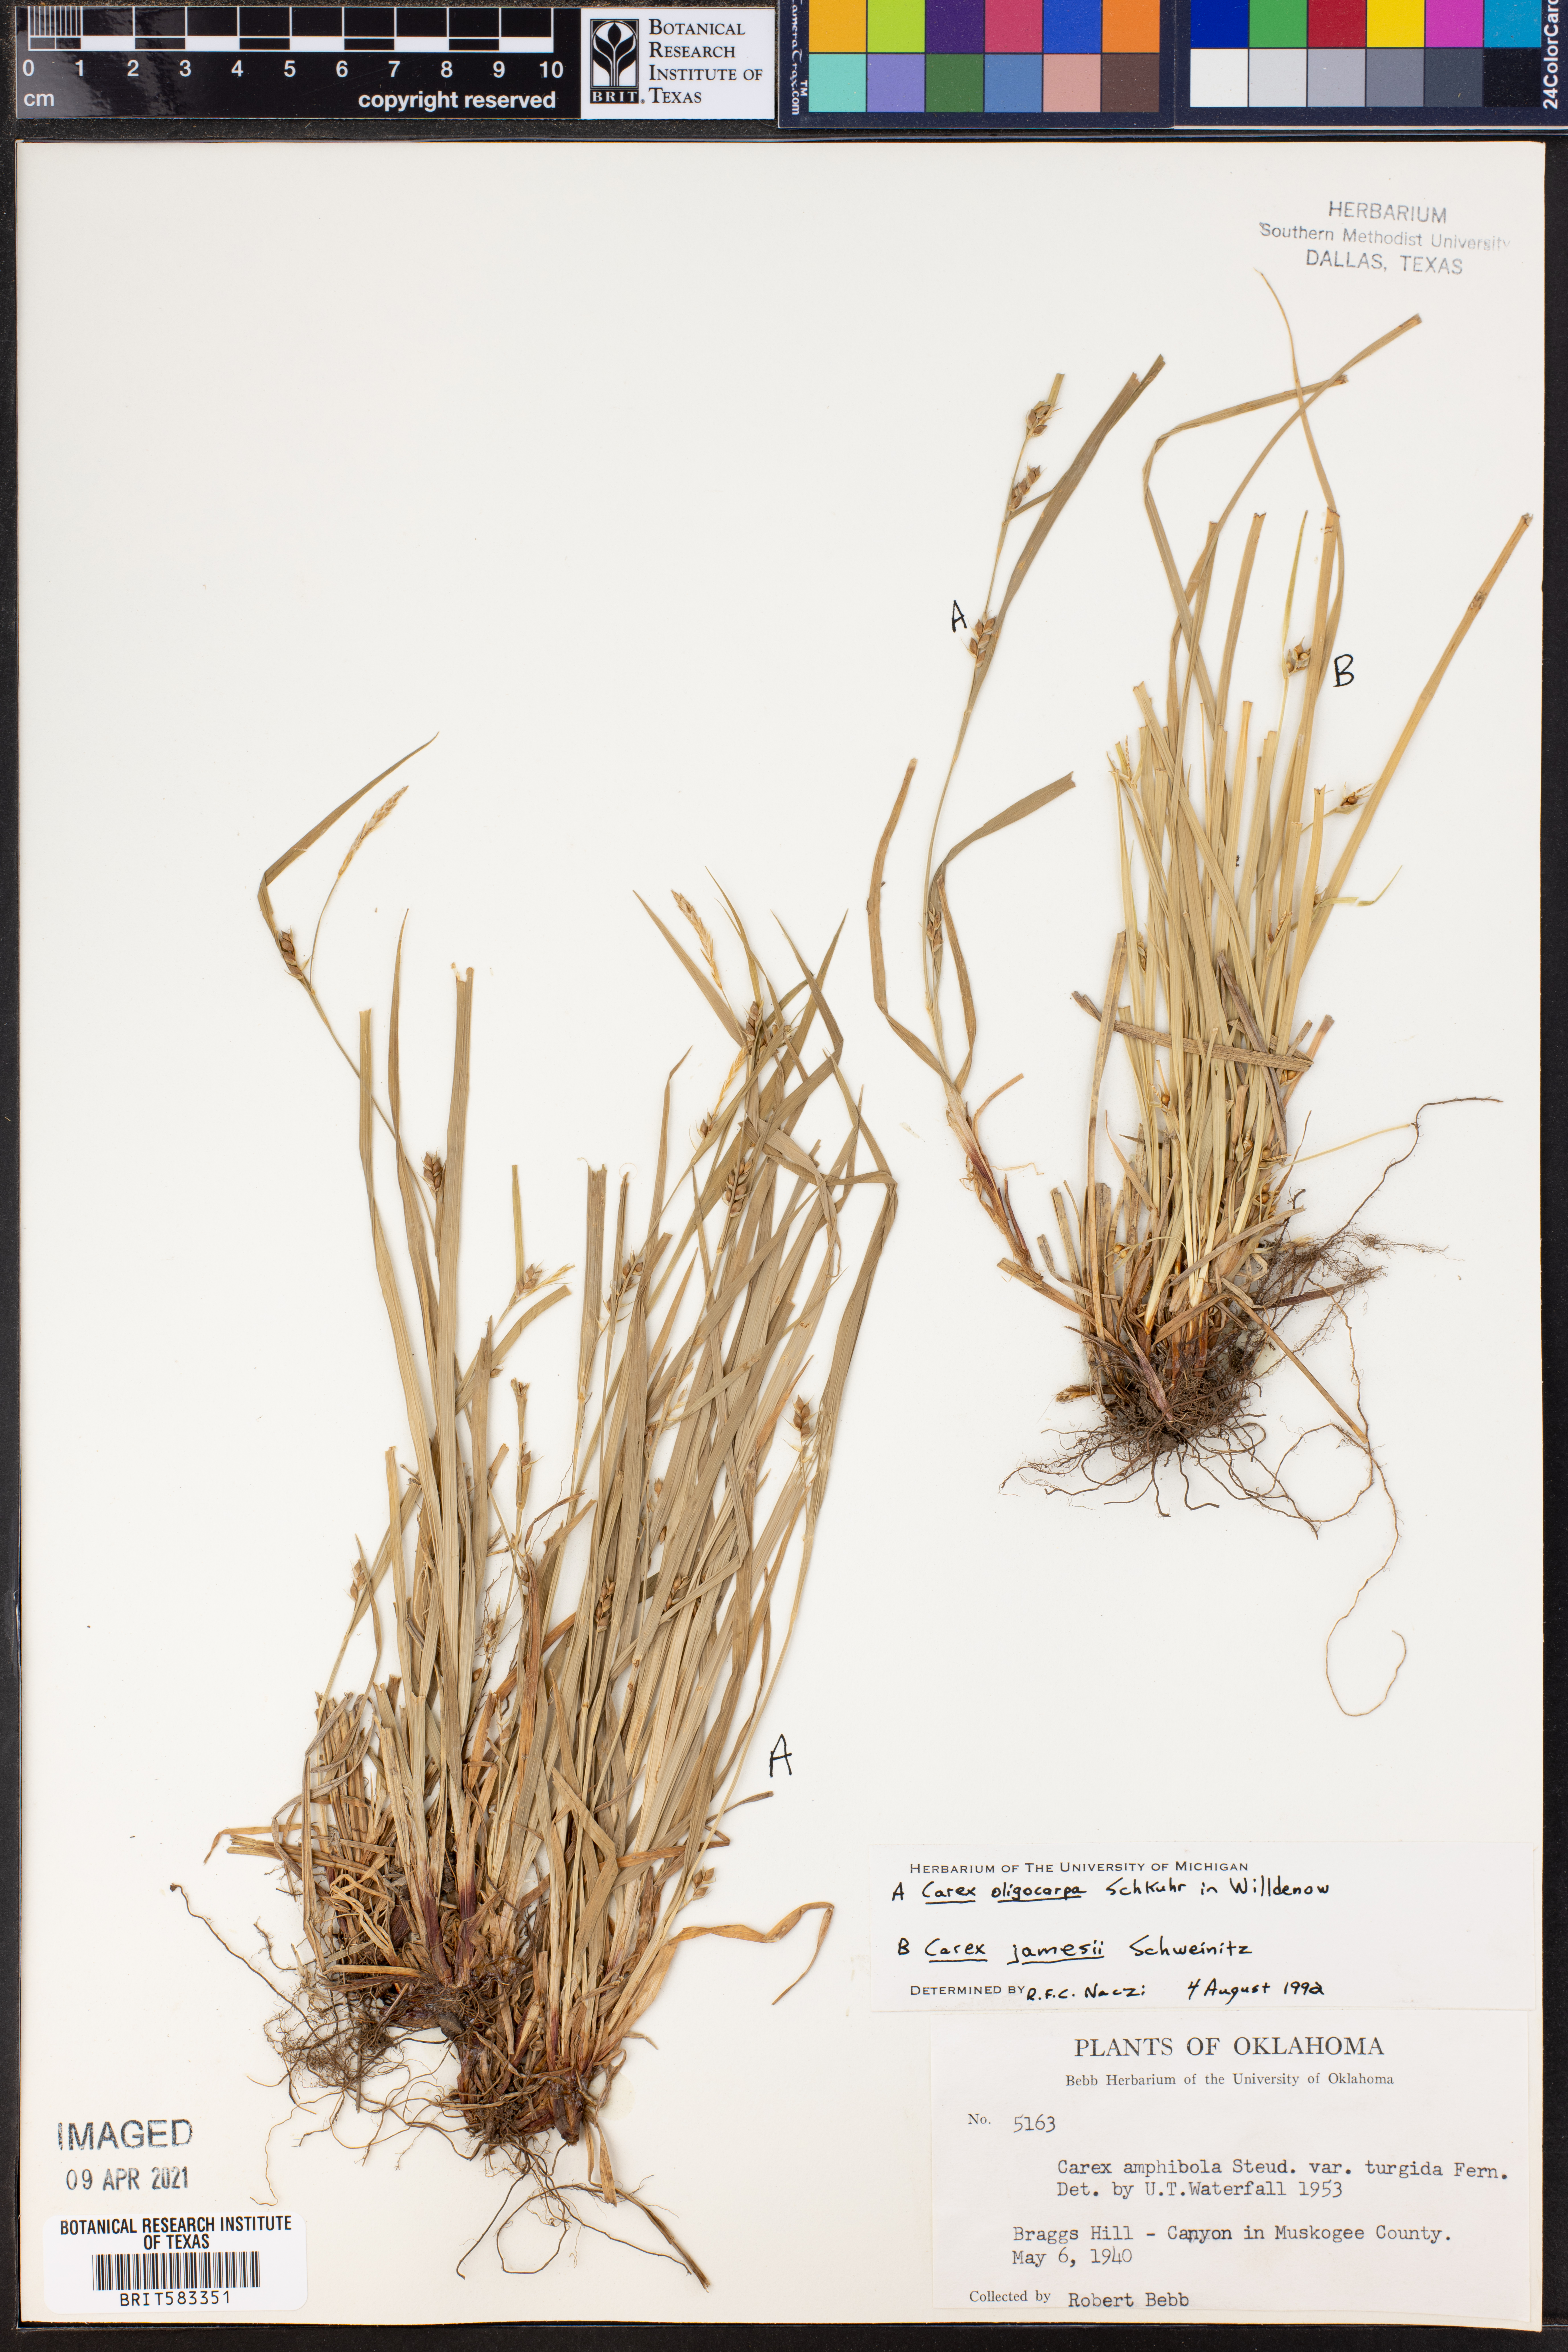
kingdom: Plantae
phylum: Tracheophyta
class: Liliopsida
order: Poales
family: Cyperaceae
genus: Carex
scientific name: Carex oligocarpa
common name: Eastern few-fruited sedge
